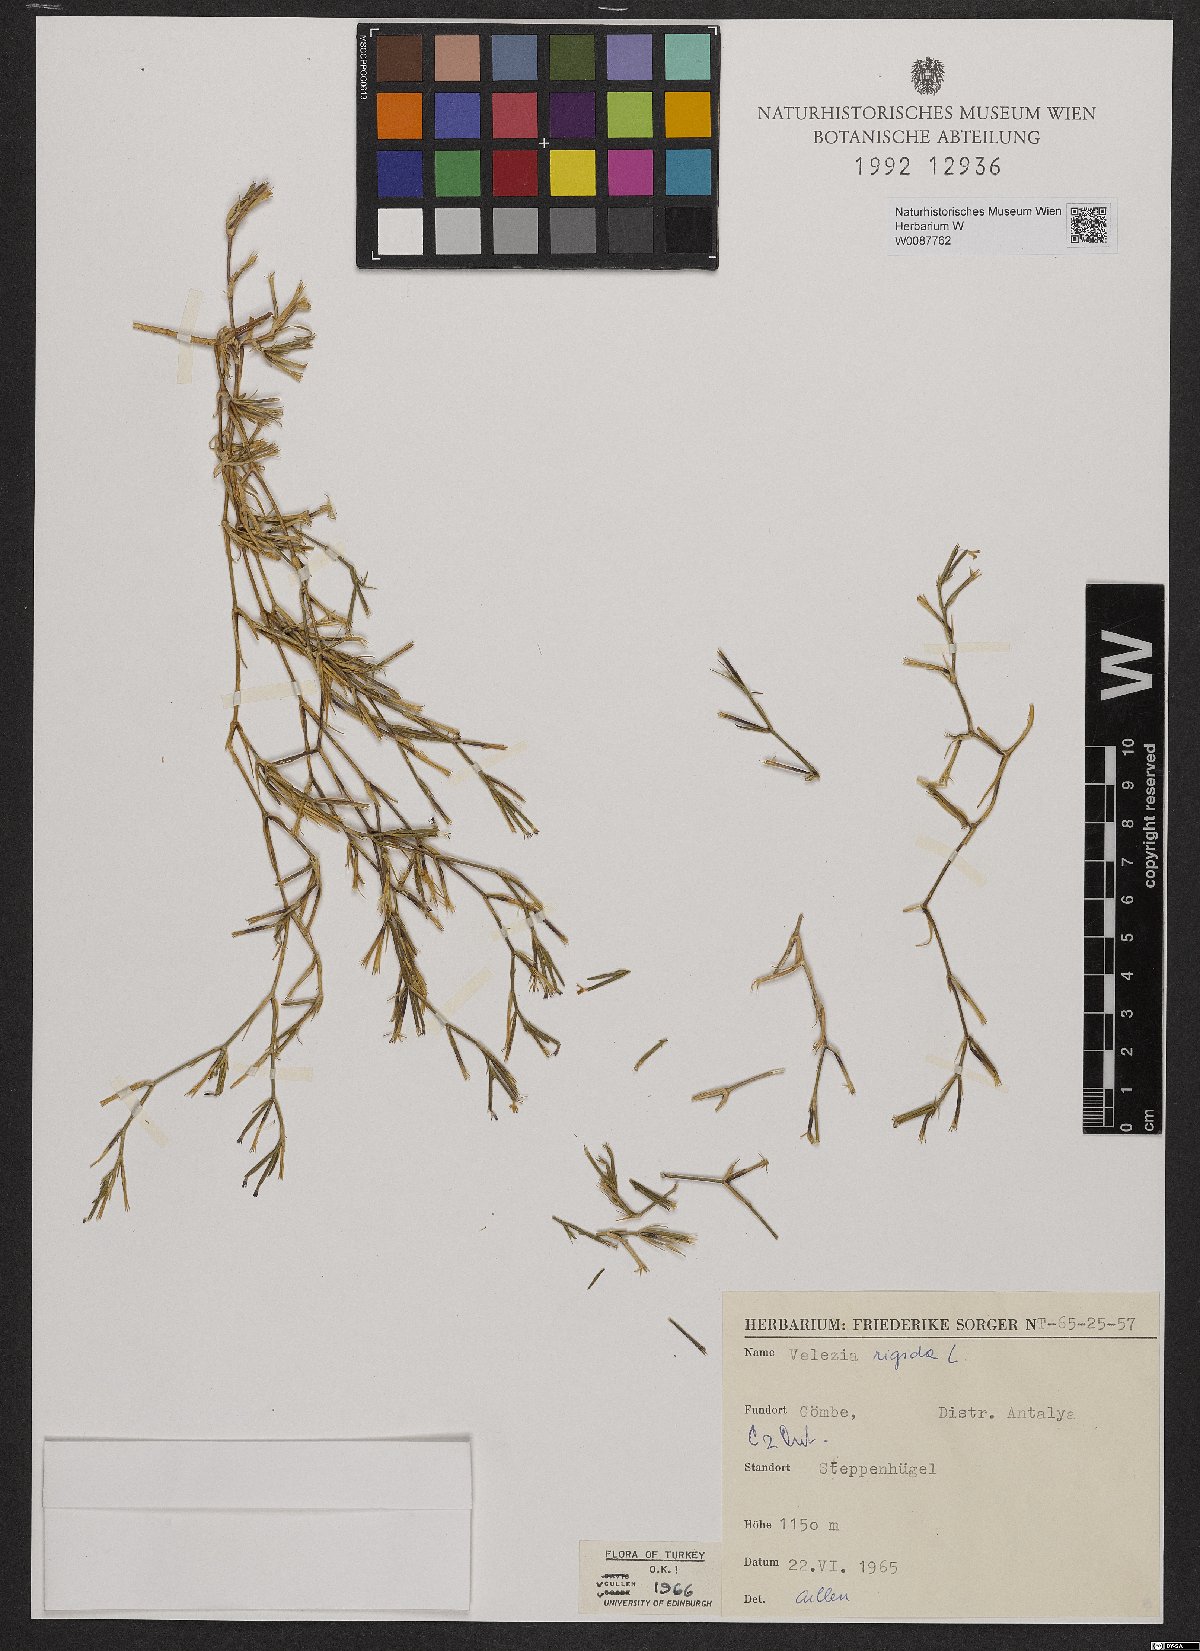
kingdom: Plantae
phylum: Tracheophyta
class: Magnoliopsida
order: Caryophyllales
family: Caryophyllaceae
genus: Dianthus
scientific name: Dianthus nudiflorus
